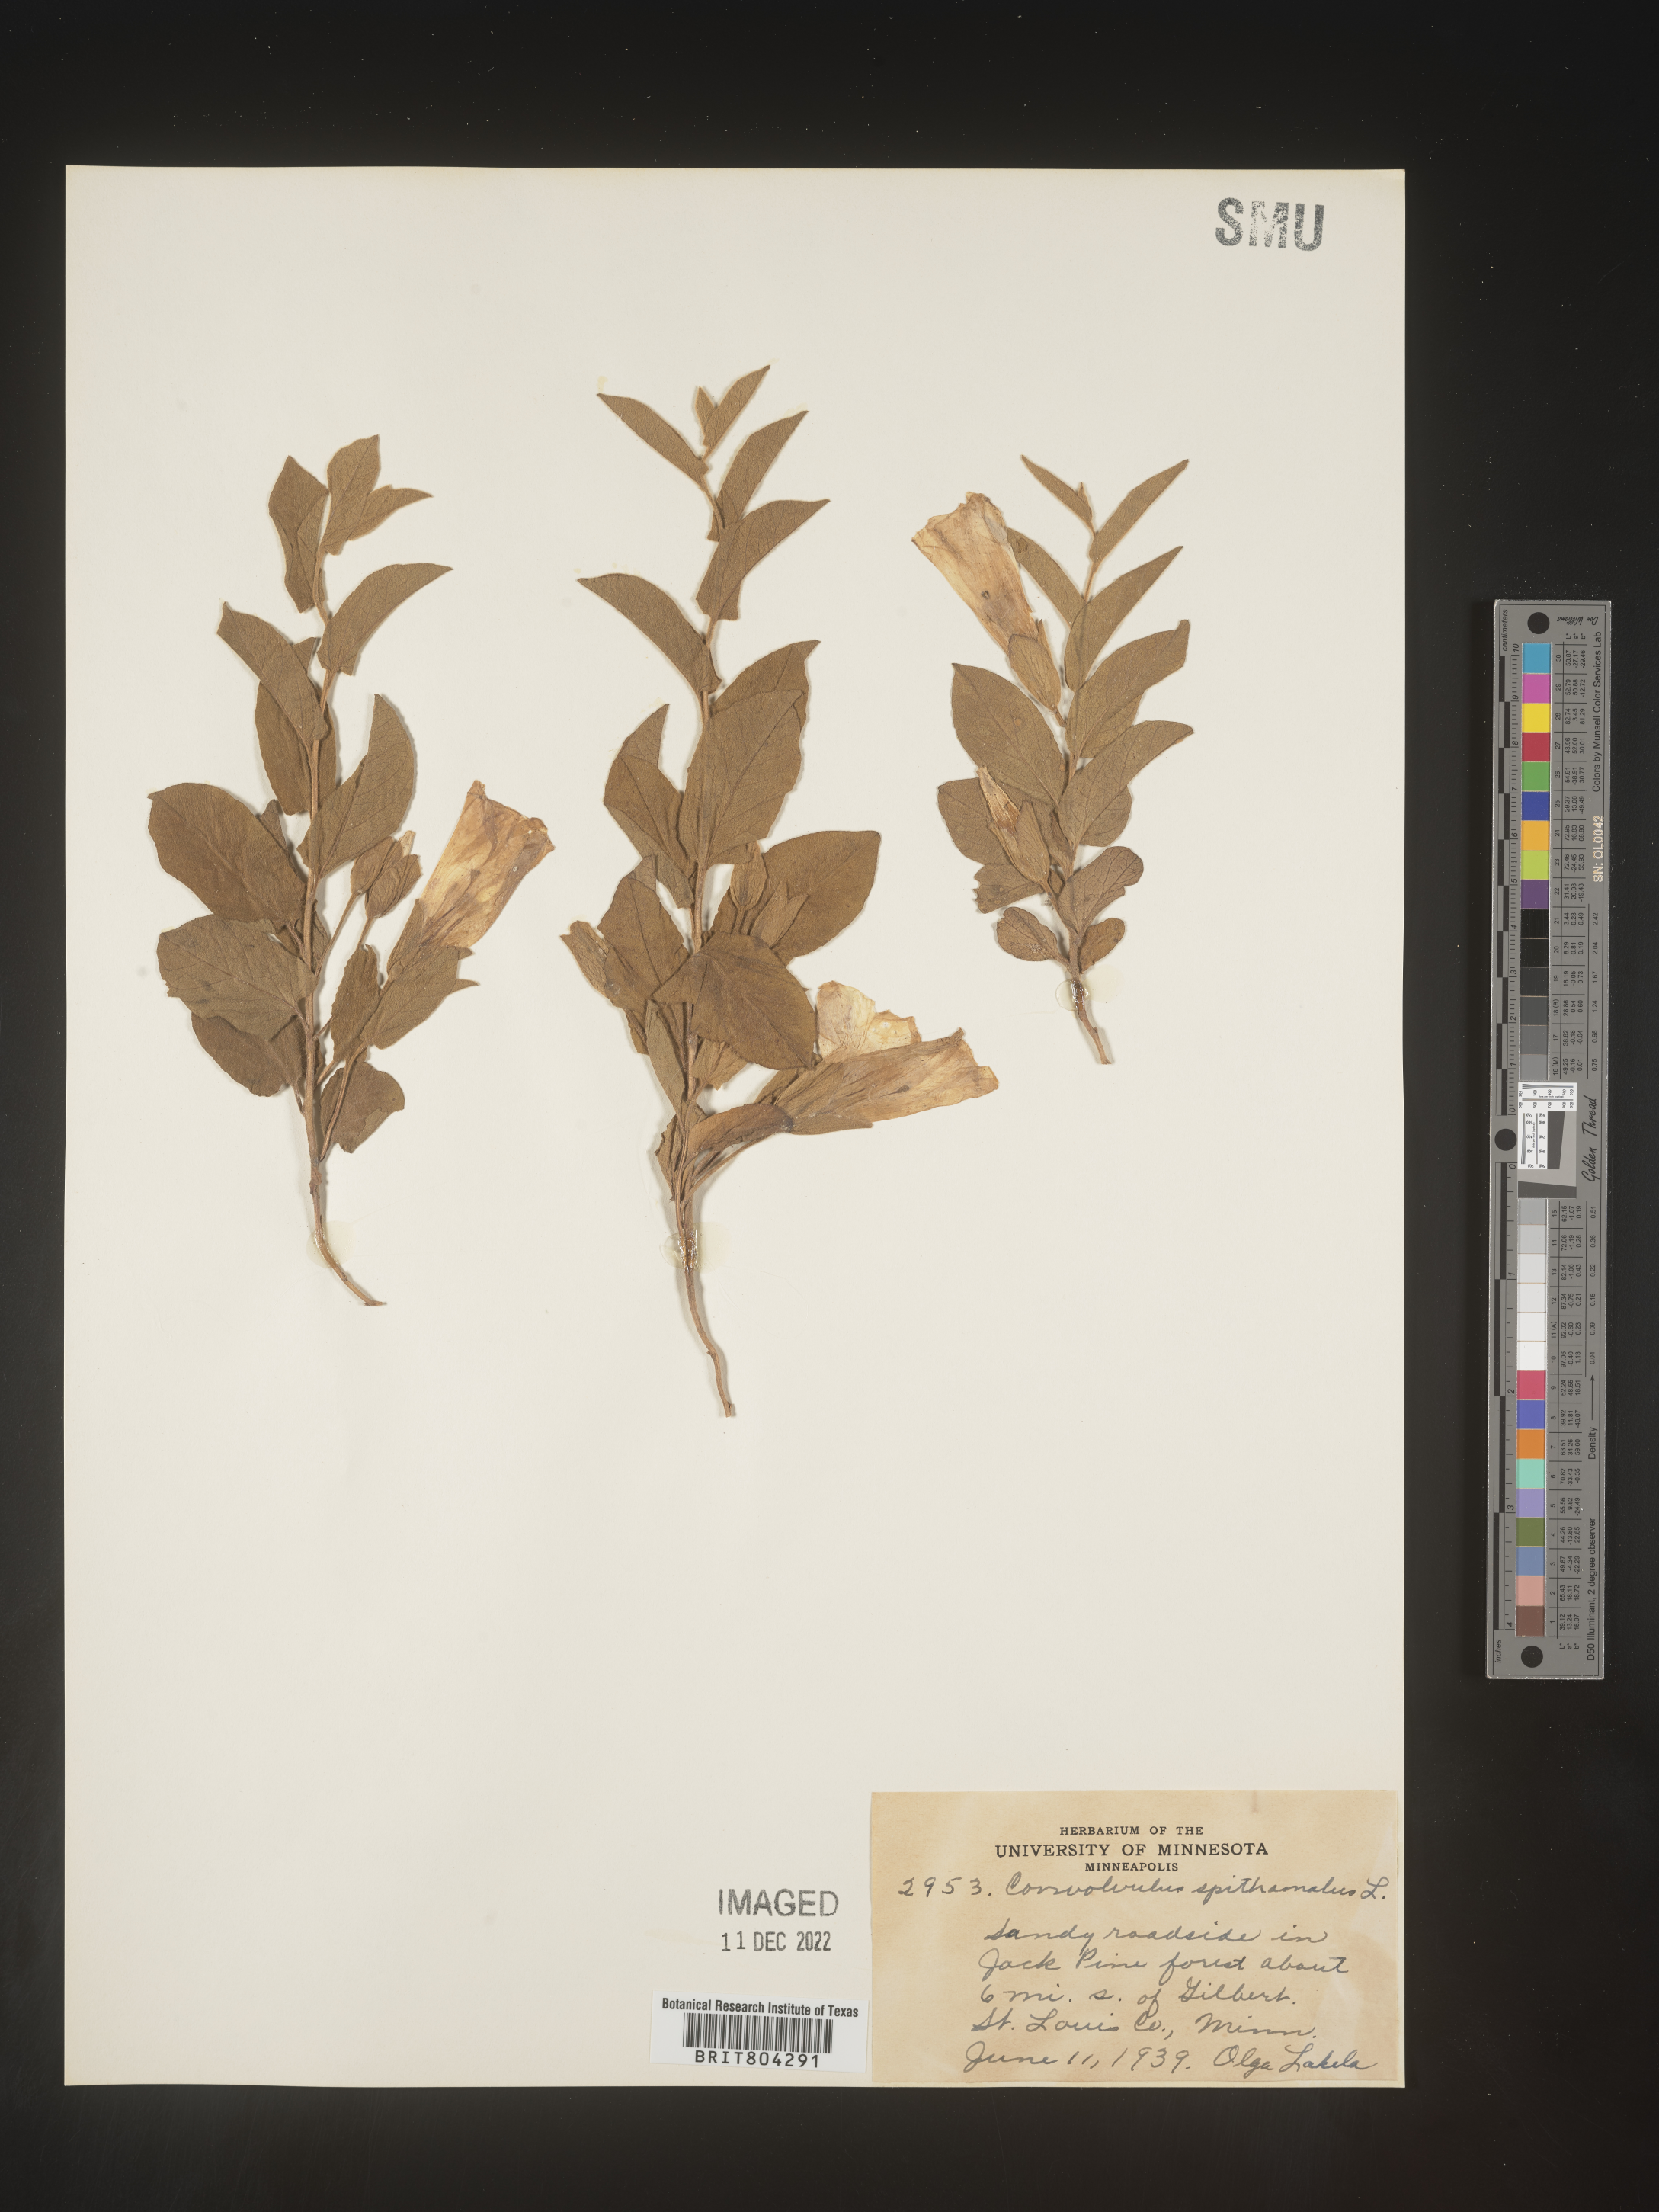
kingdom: Plantae
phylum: Tracheophyta
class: Magnoliopsida
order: Solanales
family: Convolvulaceae
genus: Calystegia
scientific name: Calystegia
